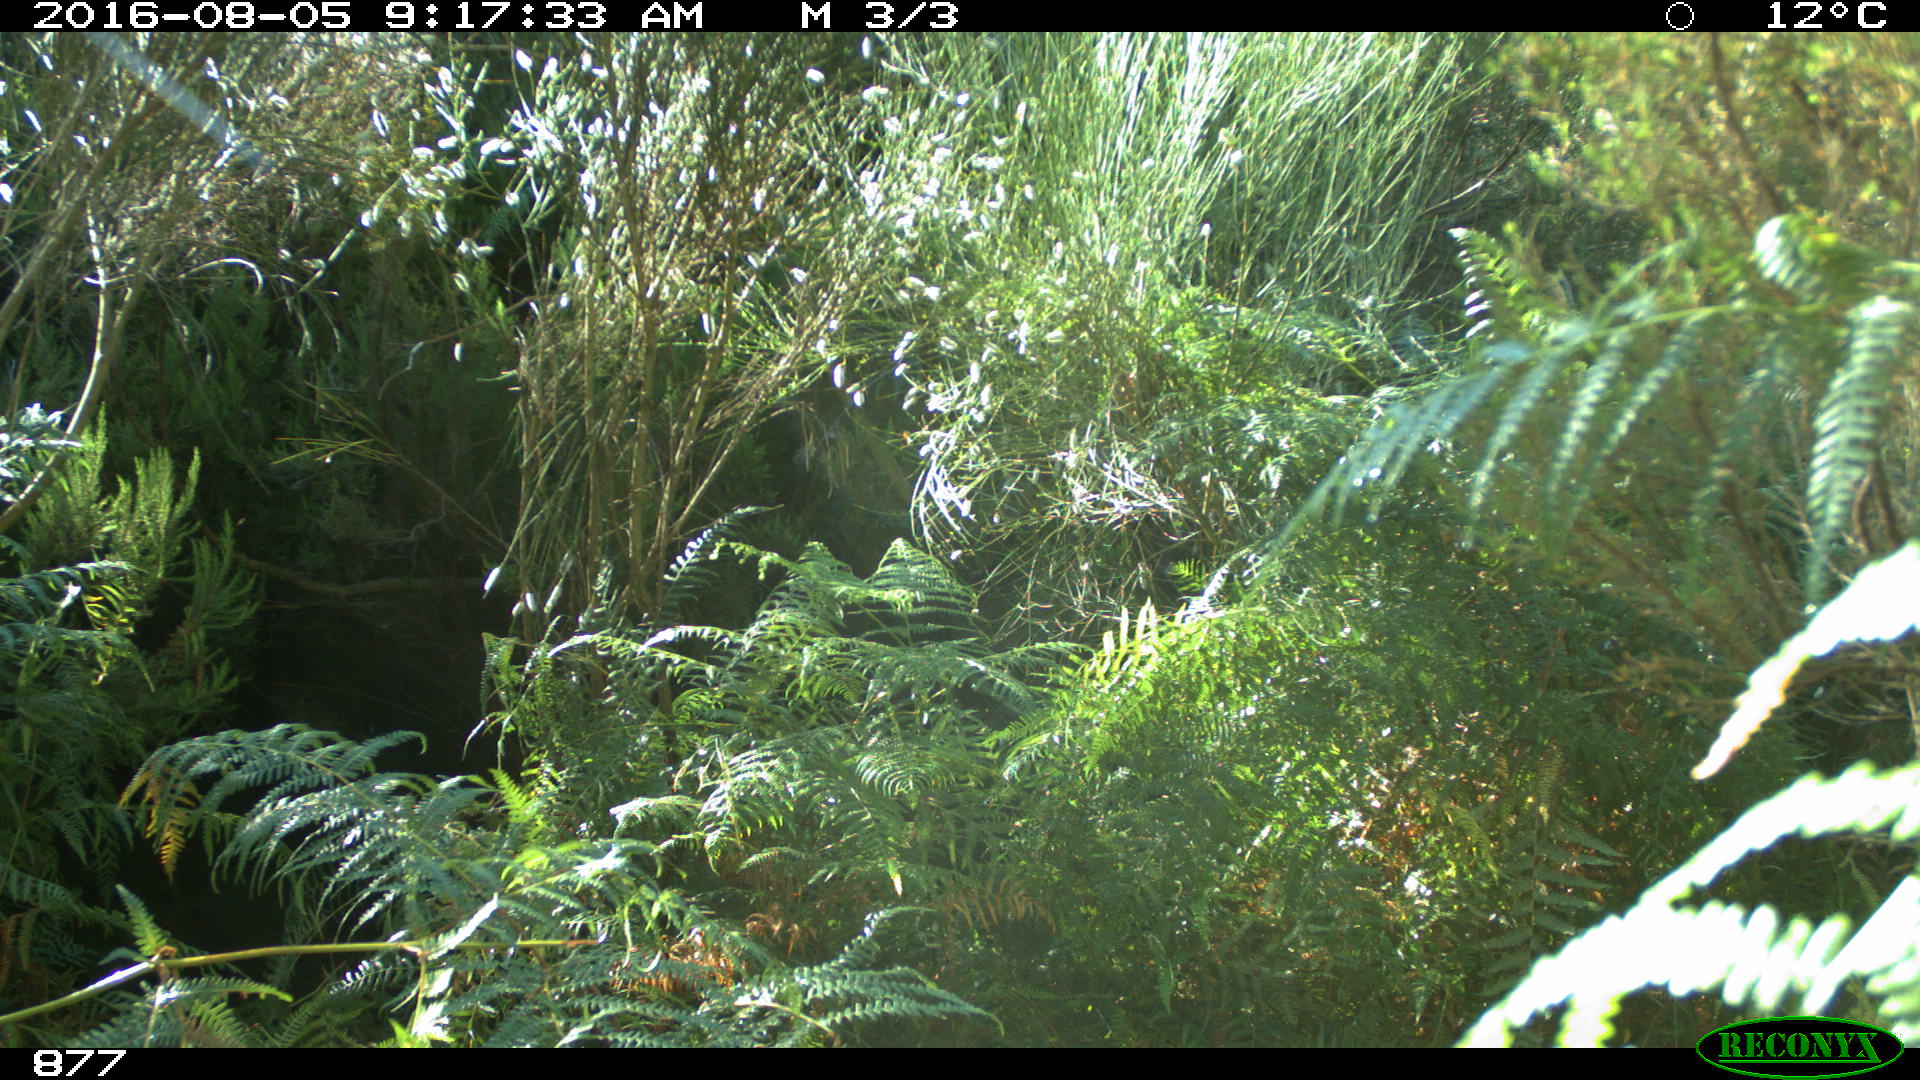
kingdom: Animalia
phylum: Chordata
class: Mammalia
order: Artiodactyla
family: Cervidae
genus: Capreolus
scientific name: Capreolus capreolus
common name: Western roe deer
